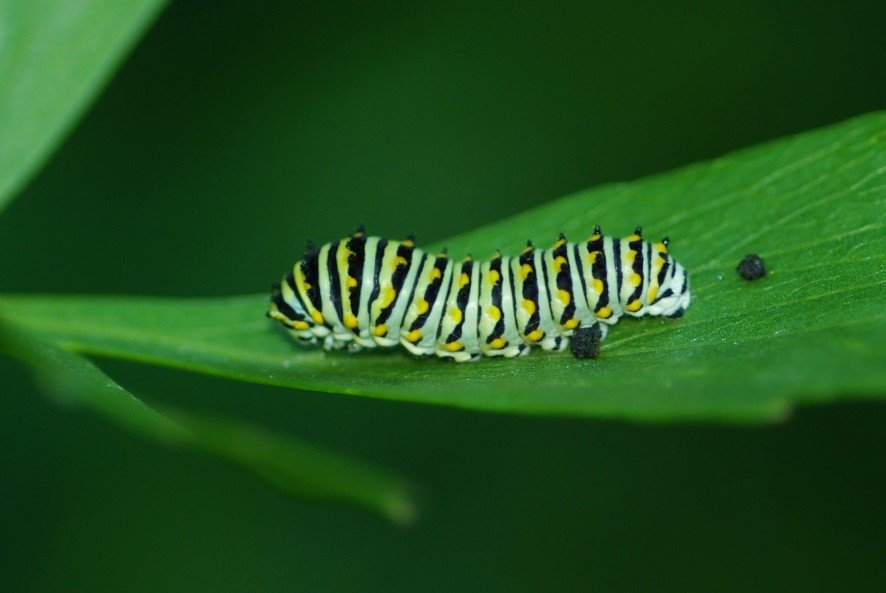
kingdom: Animalia
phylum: Arthropoda
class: Insecta
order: Lepidoptera
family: Papilionidae
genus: Papilio
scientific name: Papilio polyxenes
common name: Black Swallowtail
